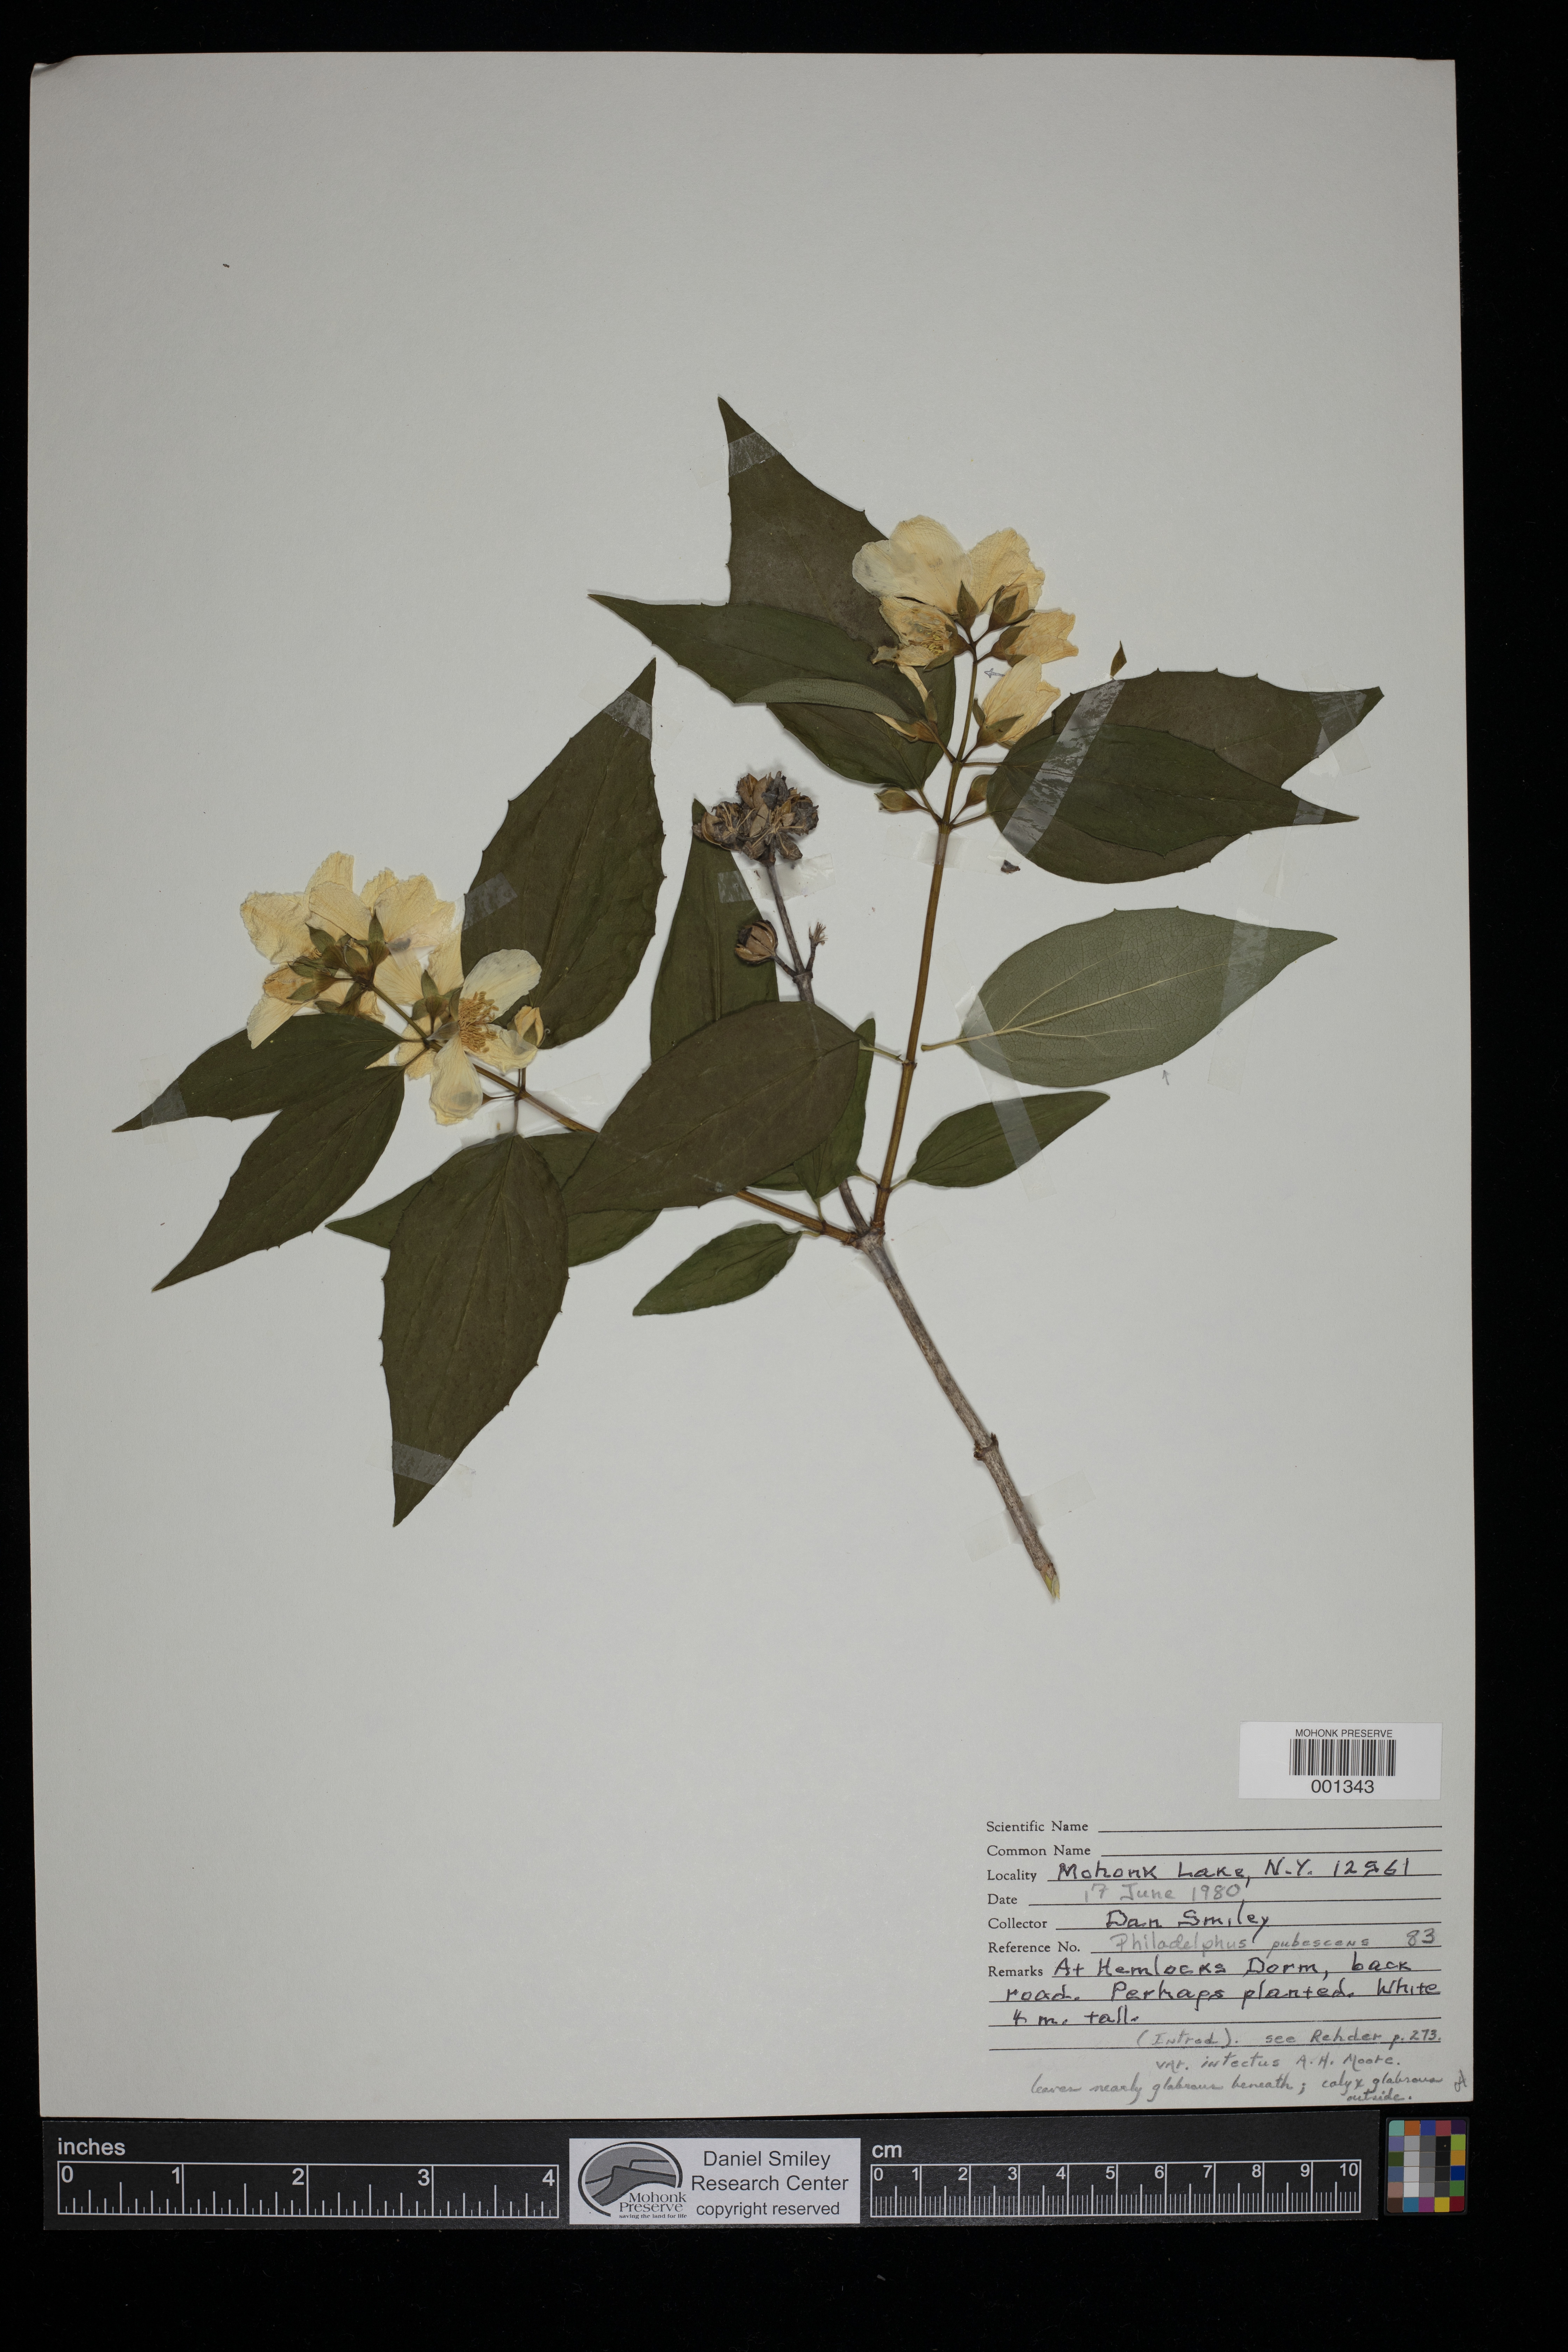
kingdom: Plantae
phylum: Tracheophyta
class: Magnoliopsida
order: Cornales
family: Hydrangeaceae
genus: Philadelphus
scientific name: Philadelphus pubescens
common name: Broadleaf mock orange
